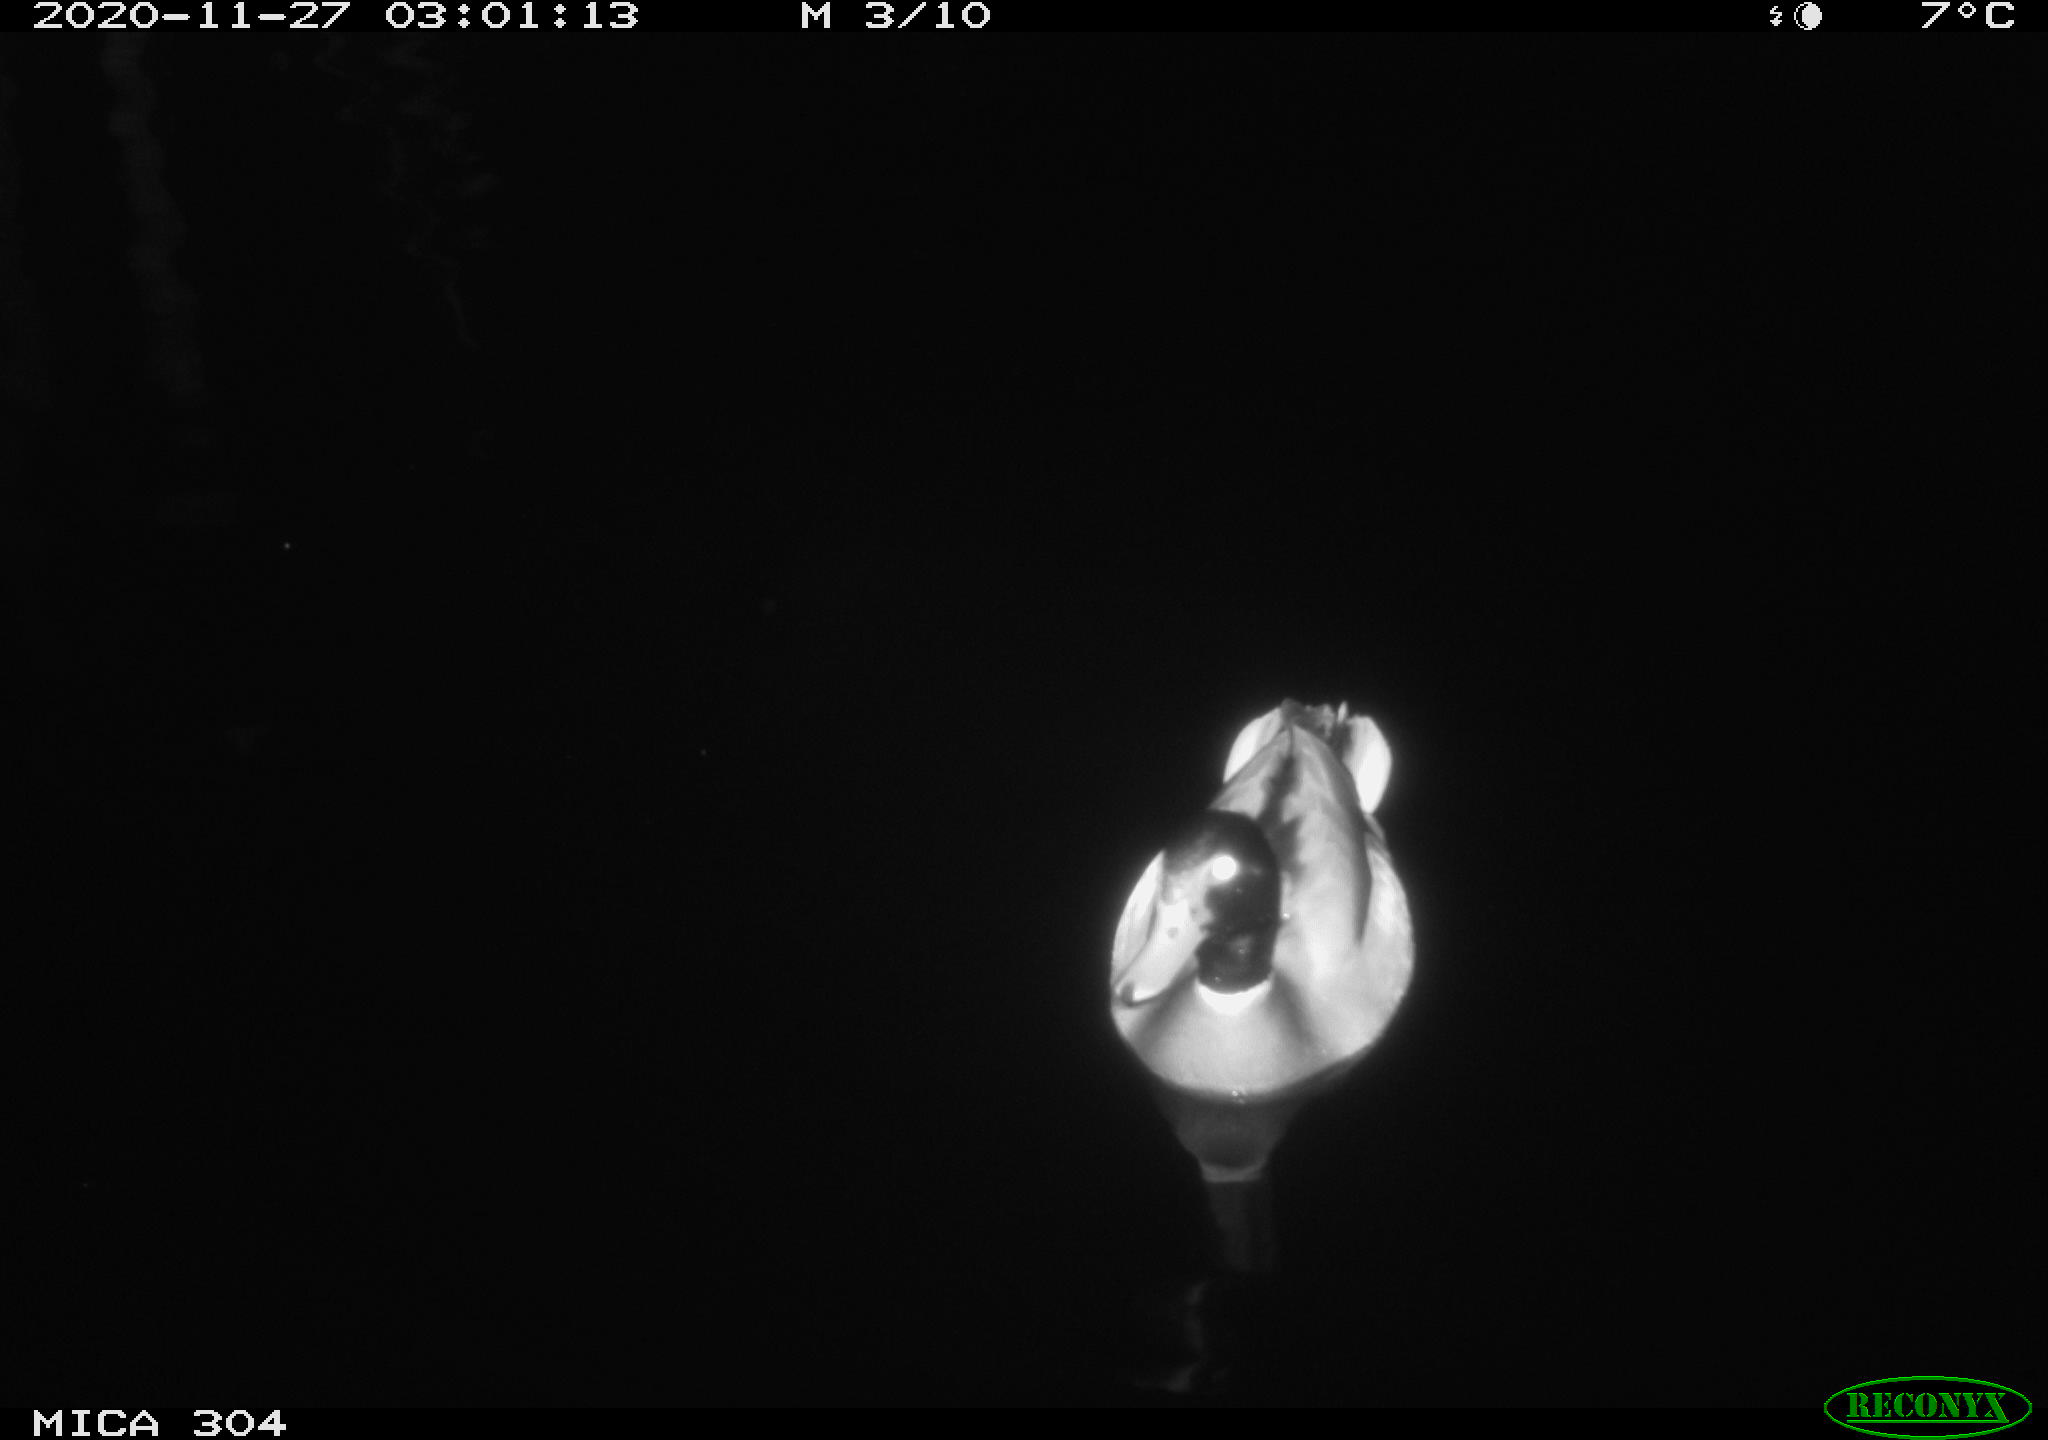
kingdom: Animalia
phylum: Chordata
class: Aves
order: Anseriformes
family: Anatidae
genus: Anas
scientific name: Anas platyrhynchos
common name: Mallard
